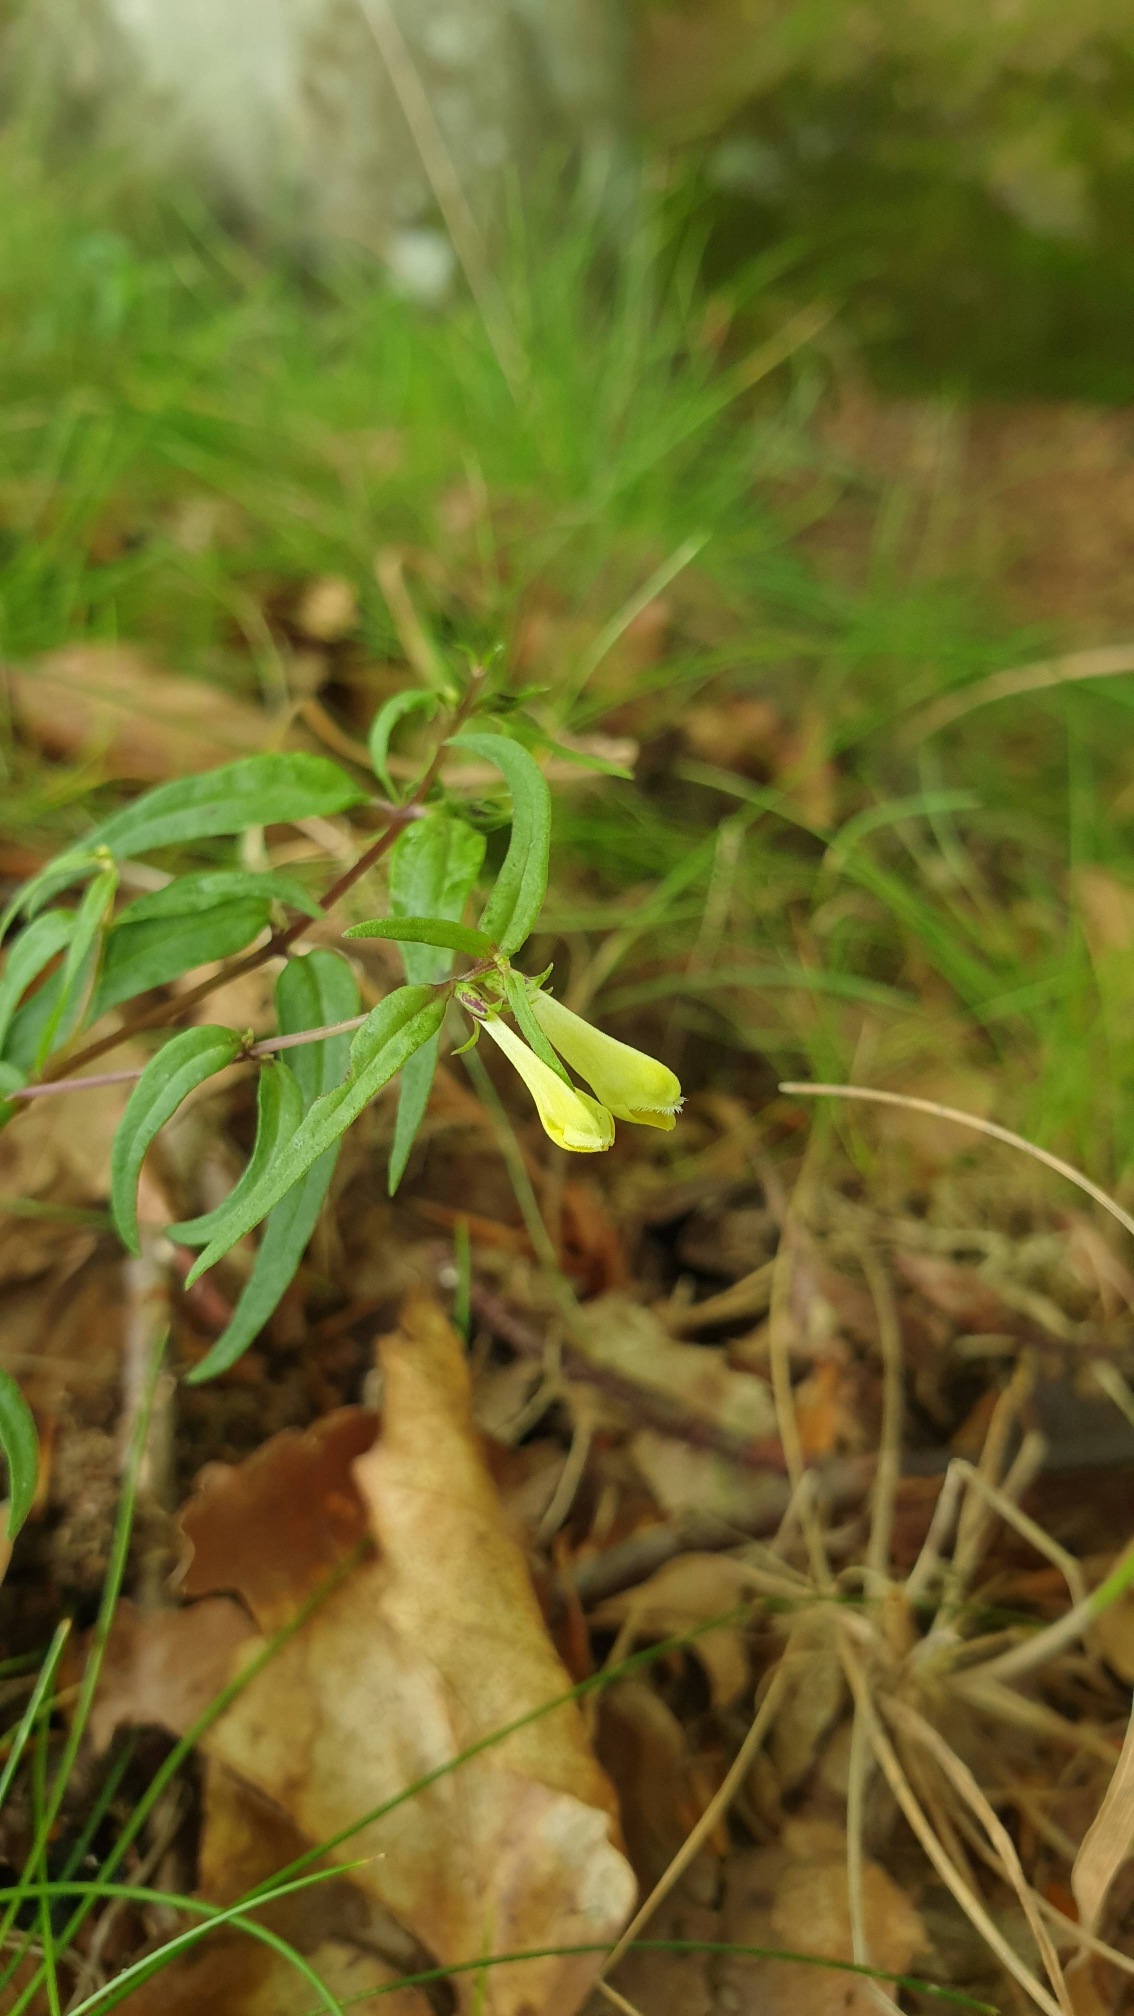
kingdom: Plantae
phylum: Tracheophyta
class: Magnoliopsida
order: Lamiales
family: Orobanchaceae
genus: Melampyrum
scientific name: Melampyrum pratense
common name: Almindelig kohvede
